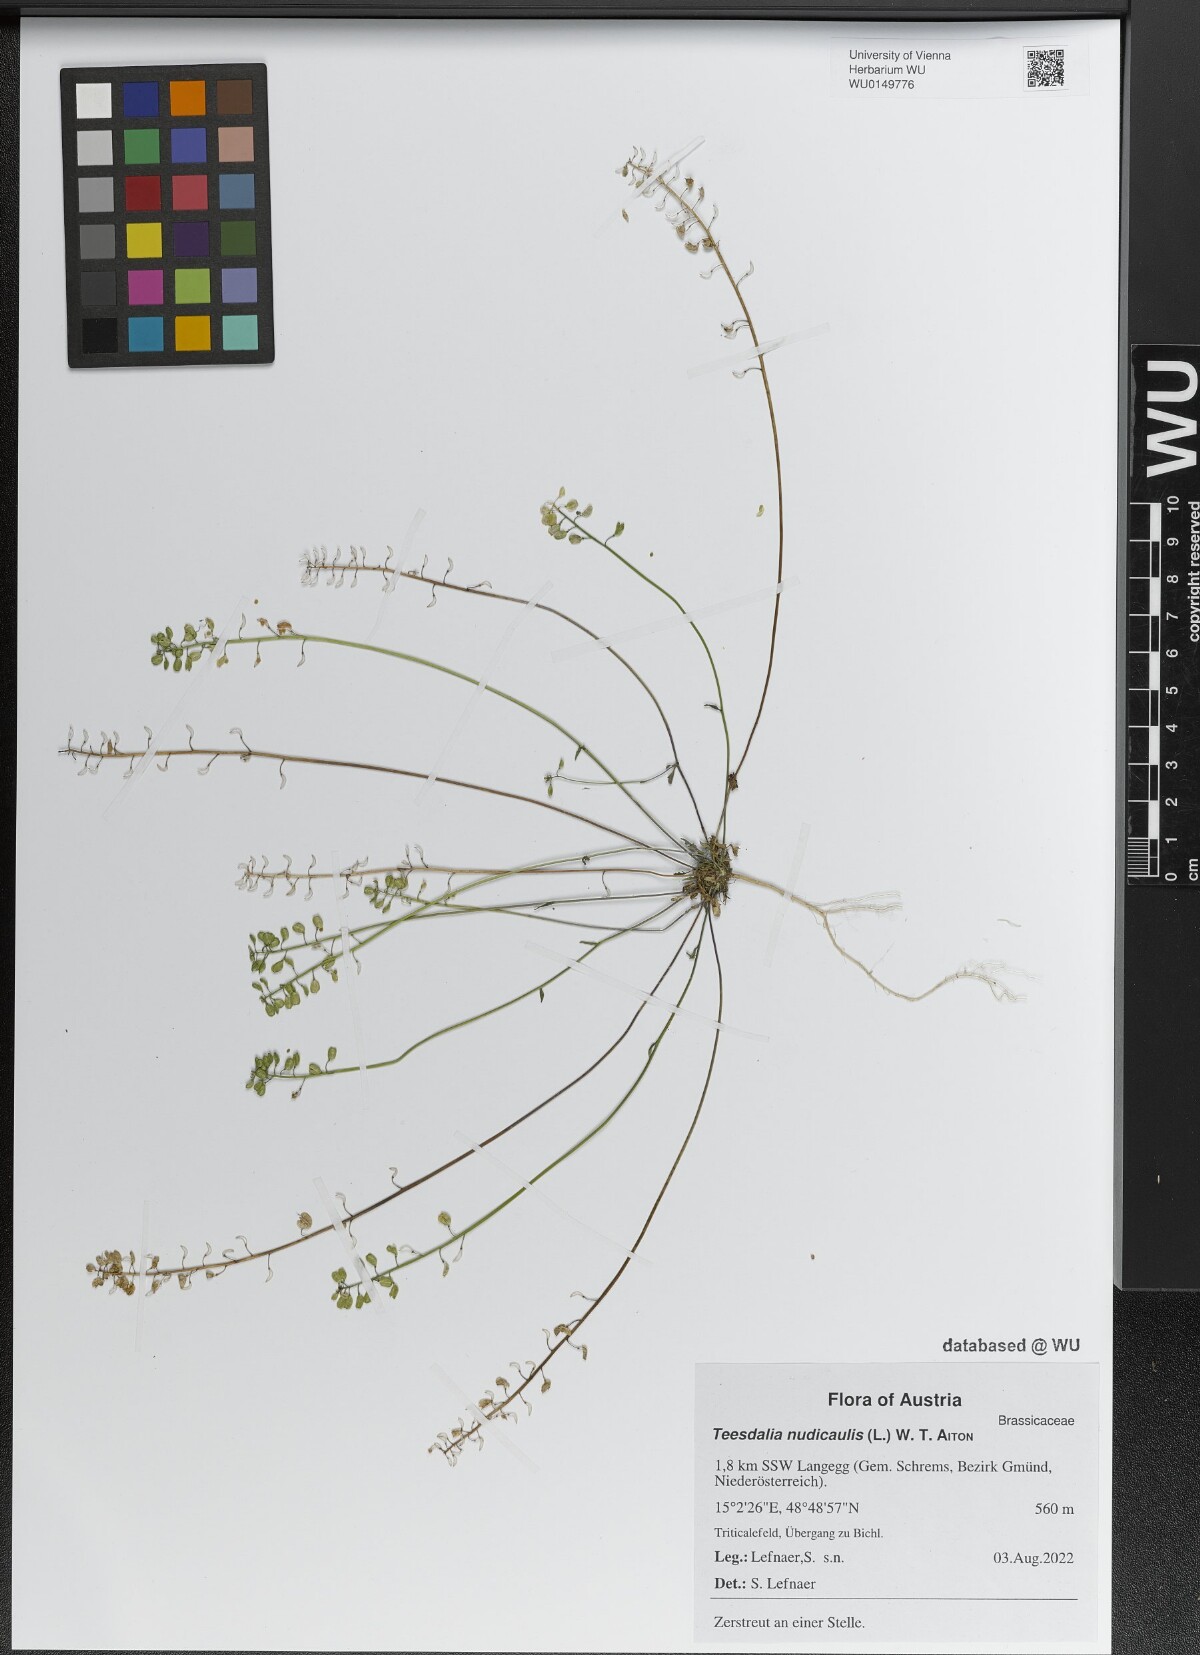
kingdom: Plantae
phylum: Tracheophyta
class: Magnoliopsida
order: Brassicales
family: Brassicaceae
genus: Teesdalia
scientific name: Teesdalia nudicaulis
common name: Shepherd's cress
